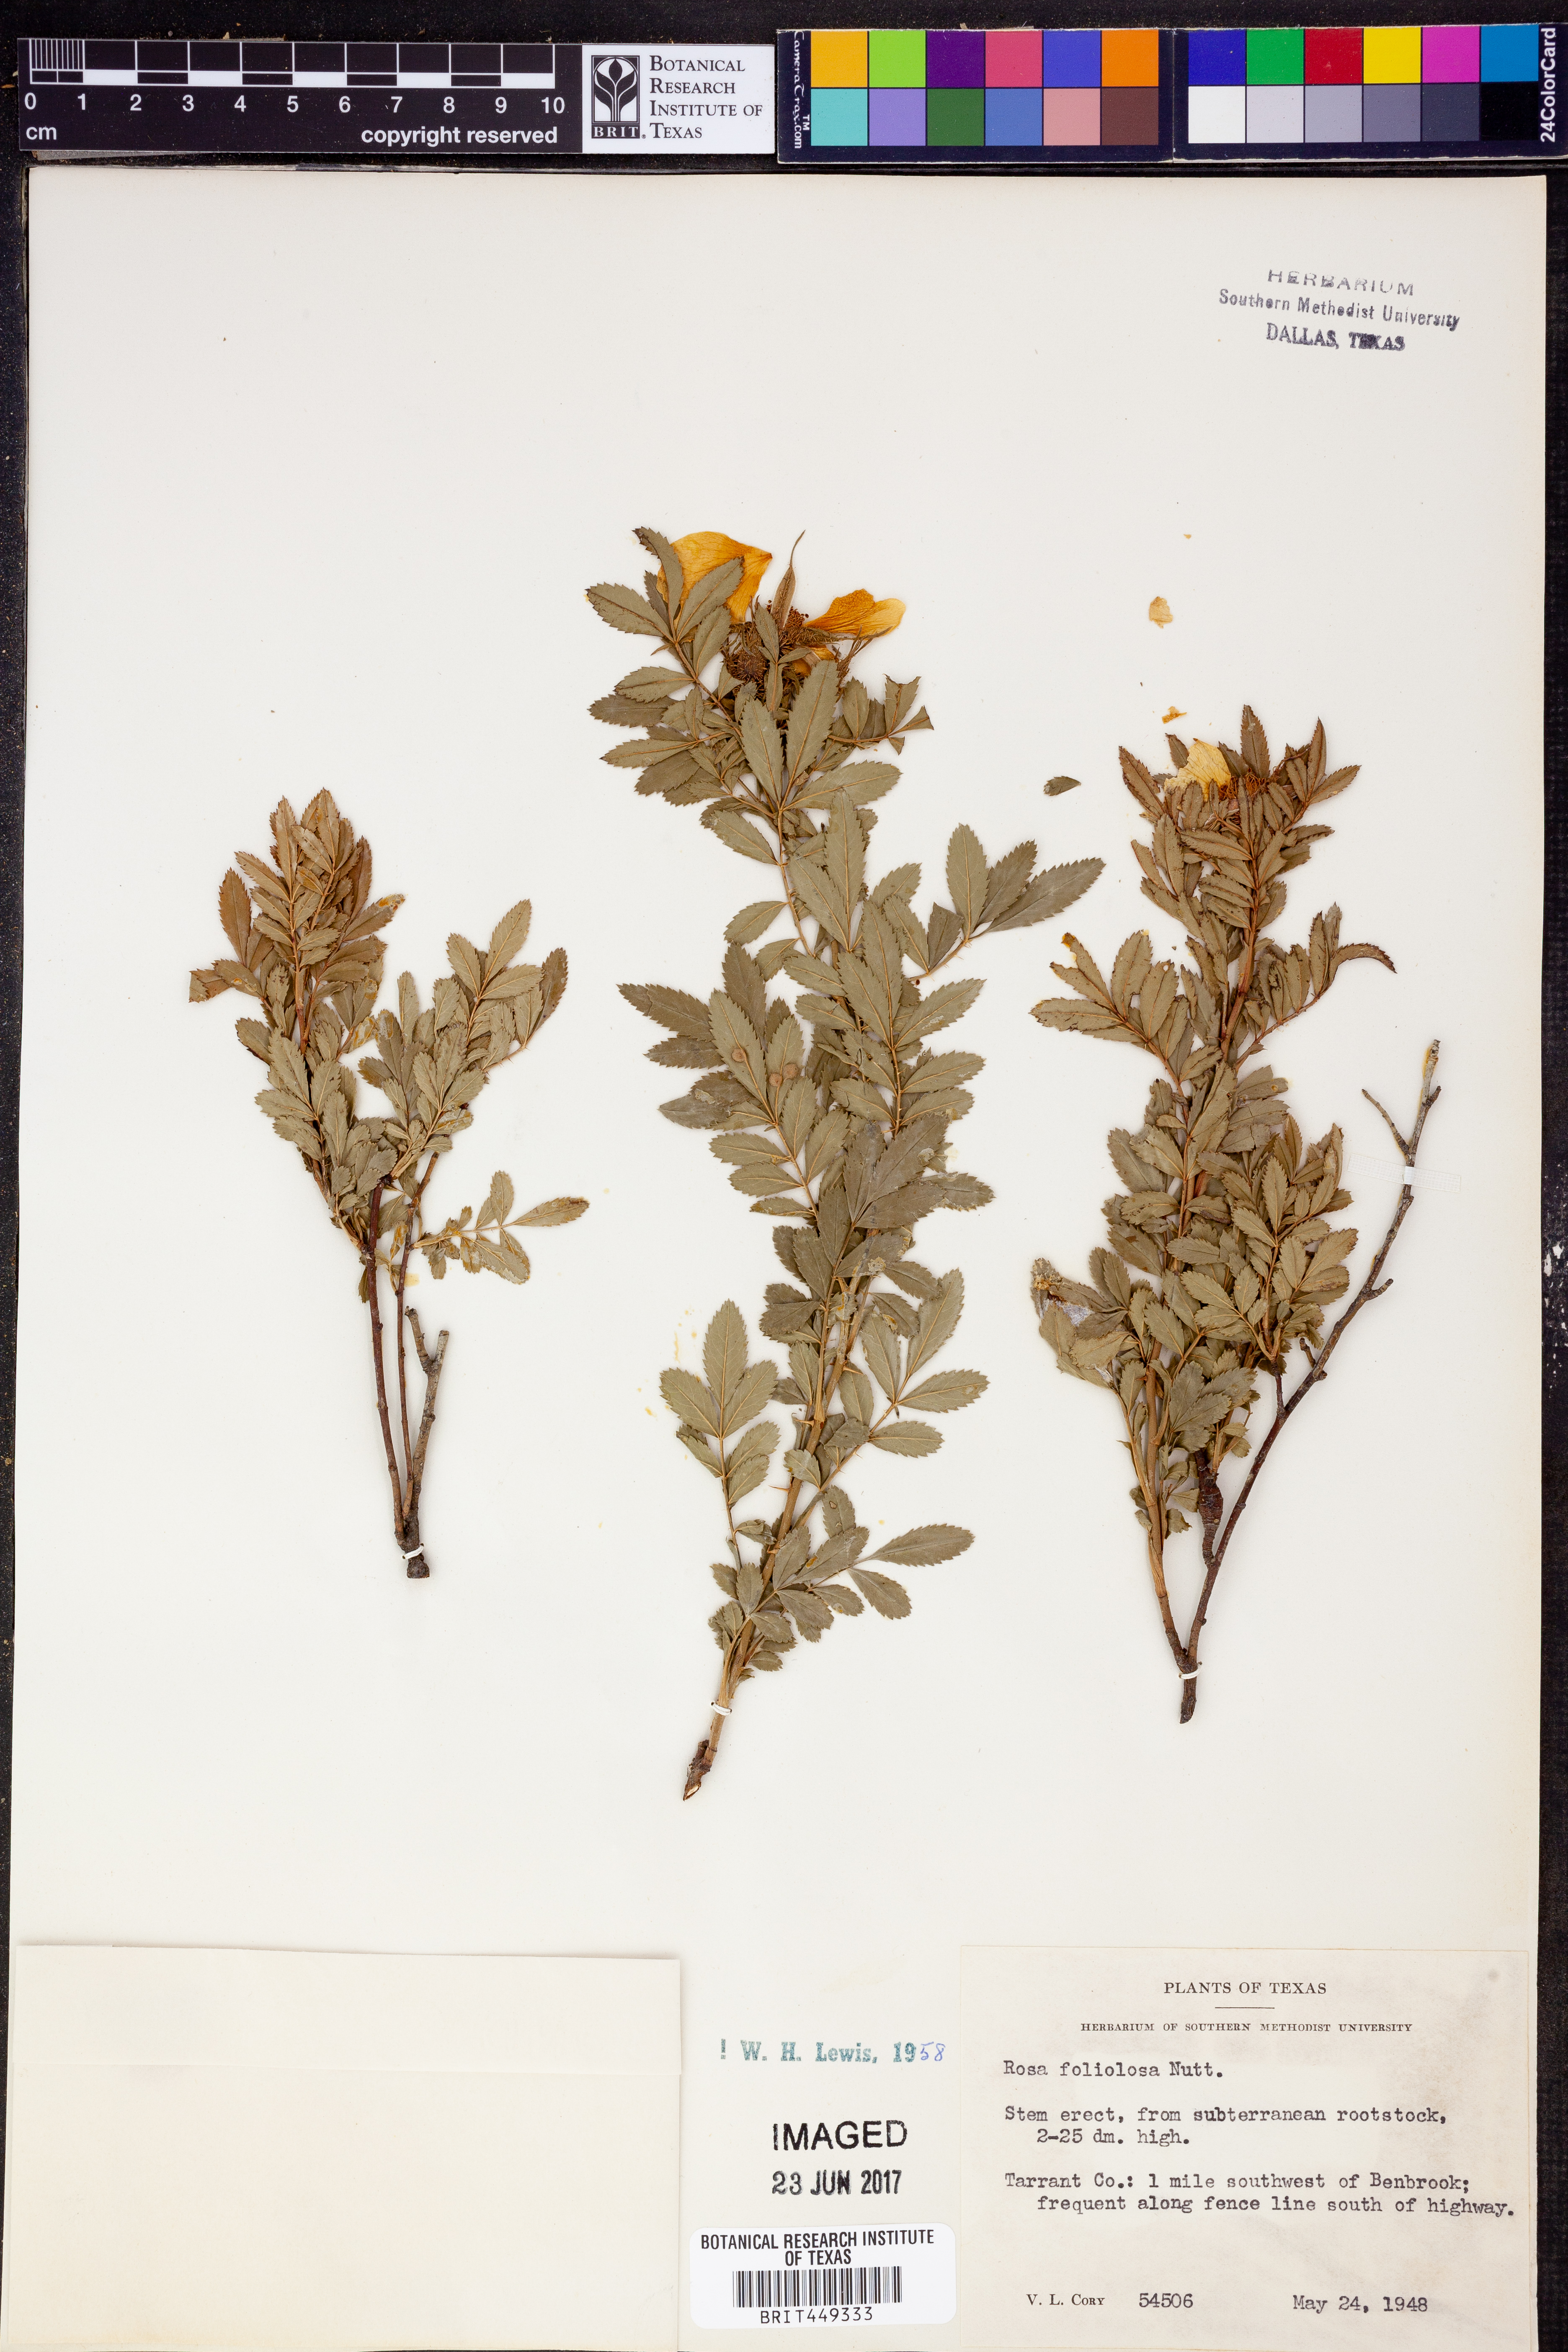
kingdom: Plantae
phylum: Tracheophyta
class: Magnoliopsida
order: Rosales
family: Rosaceae
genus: Rosa
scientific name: Rosa foliolosa
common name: White prairie rose
